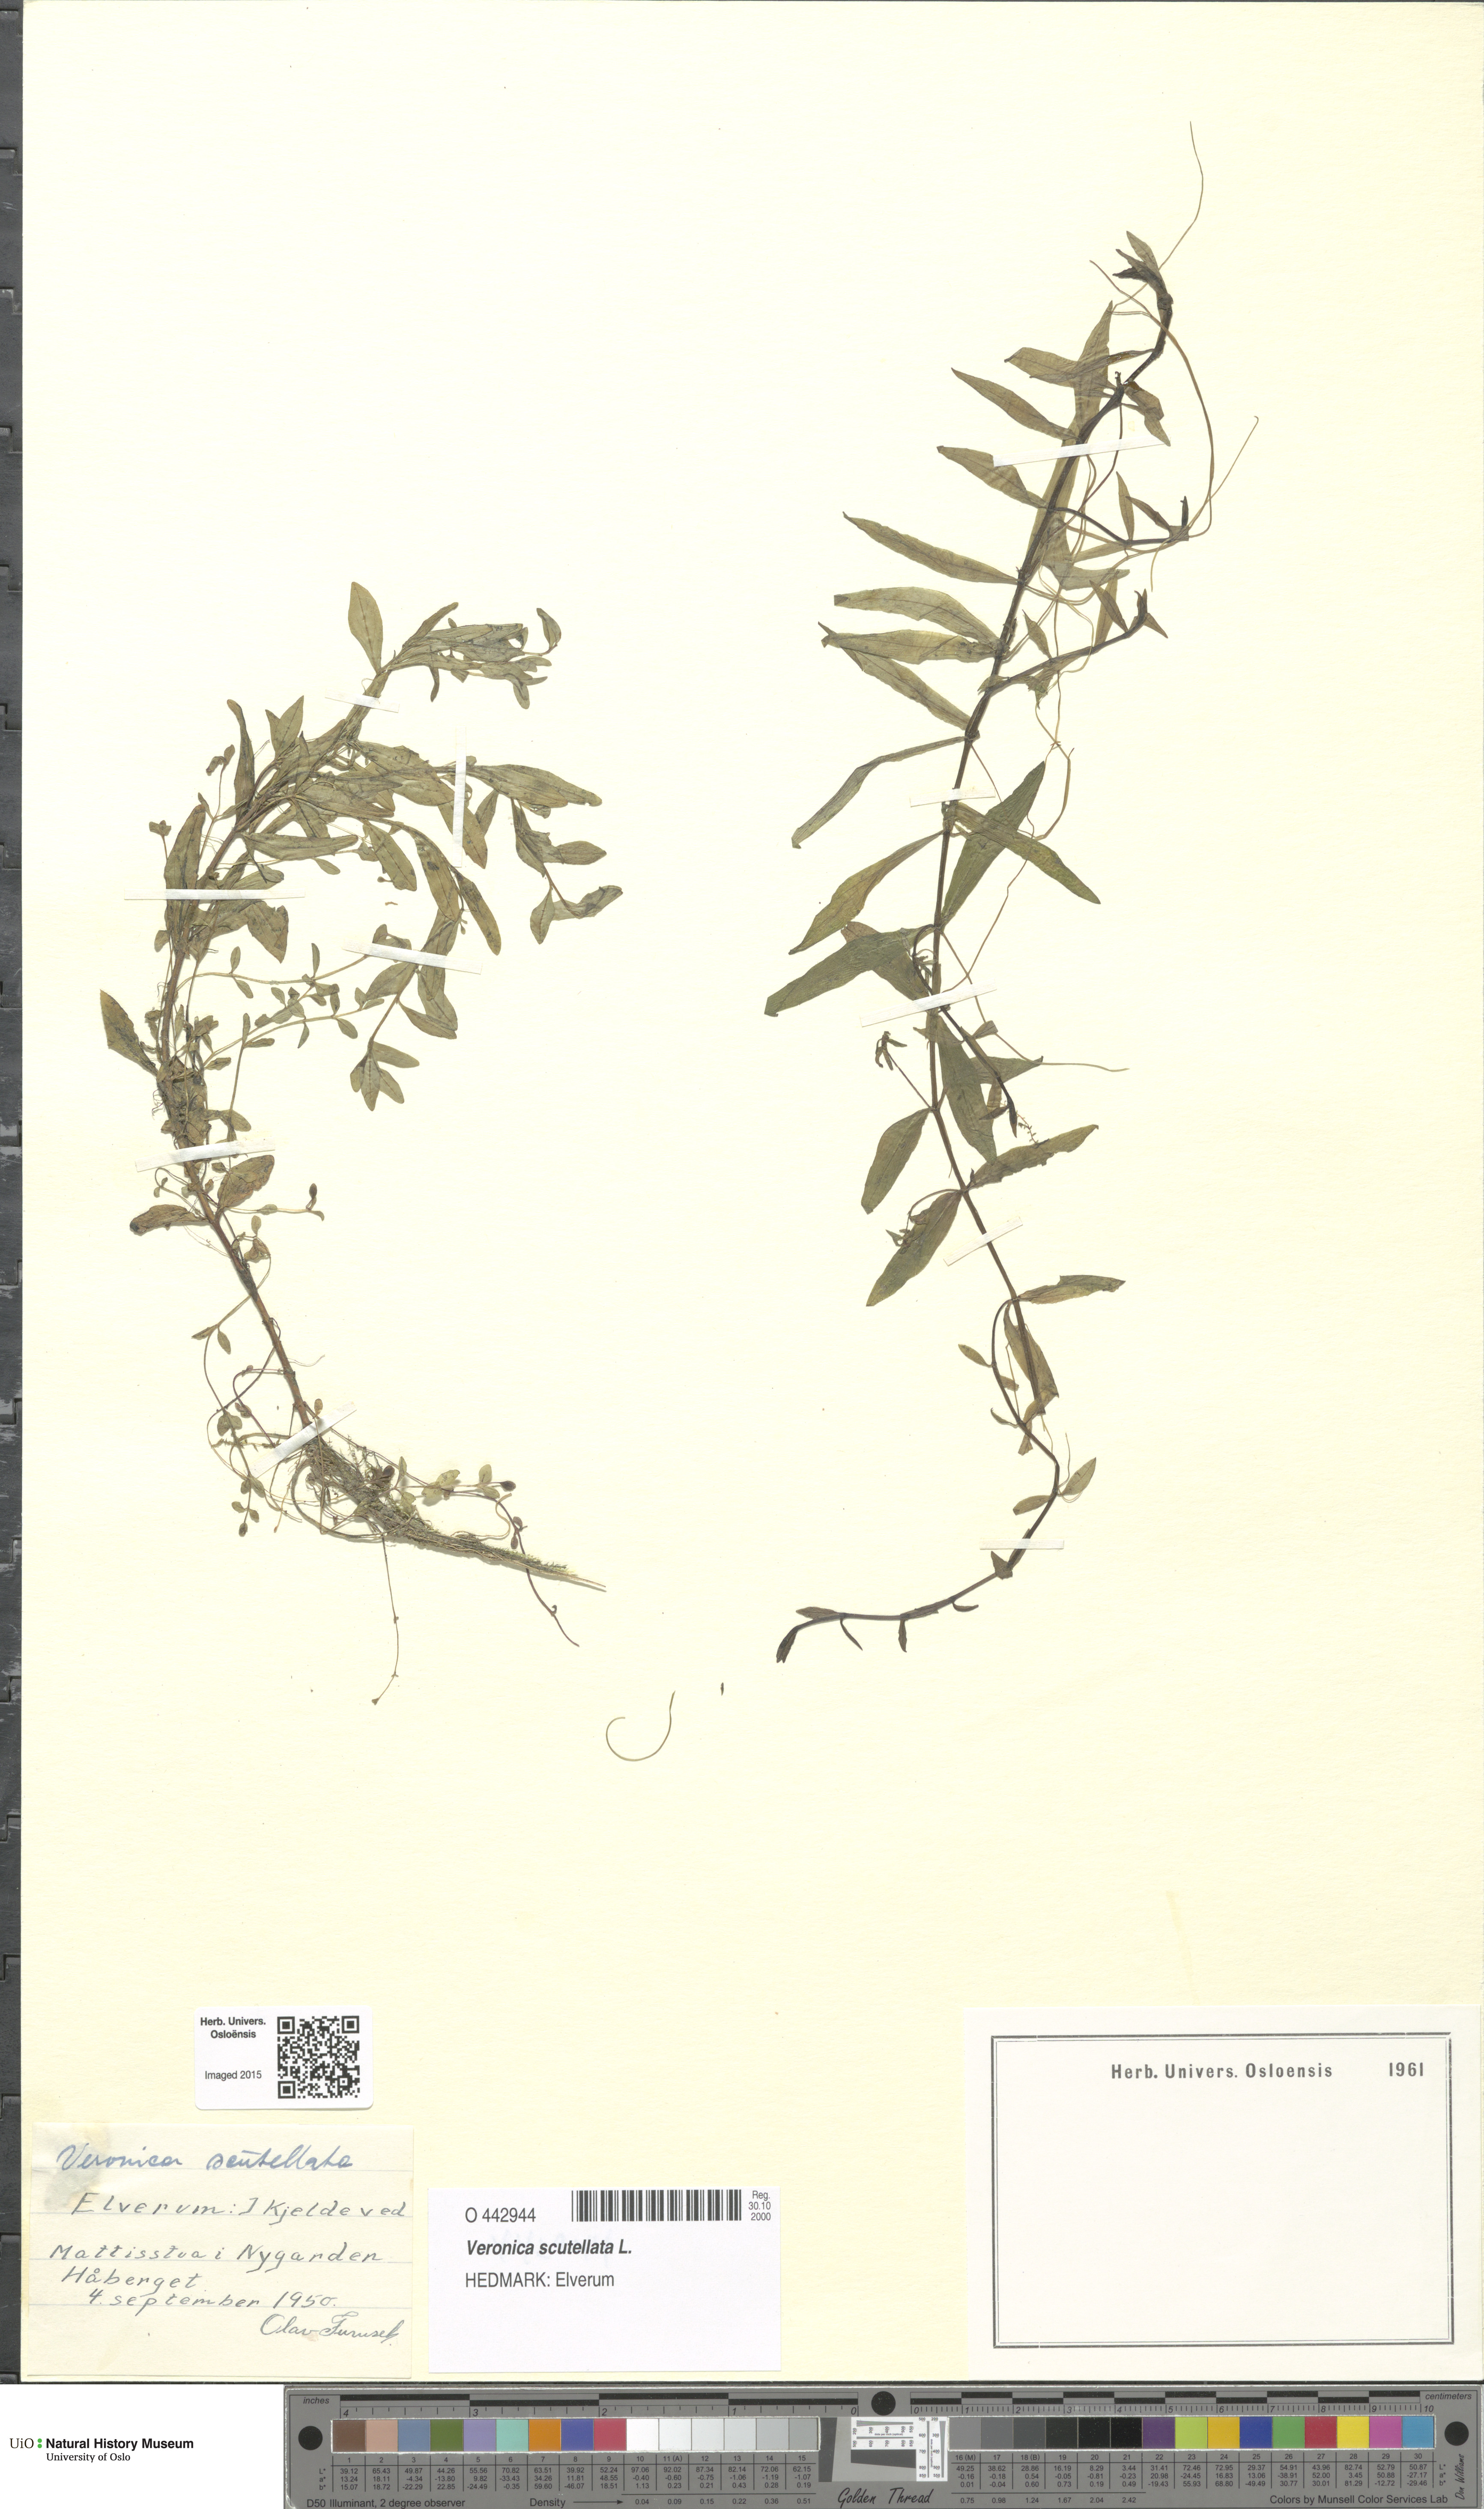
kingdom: Plantae
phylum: Tracheophyta
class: Magnoliopsida
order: Lamiales
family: Plantaginaceae
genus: Veronica
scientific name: Veronica scutellata
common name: Marsh speedwell
